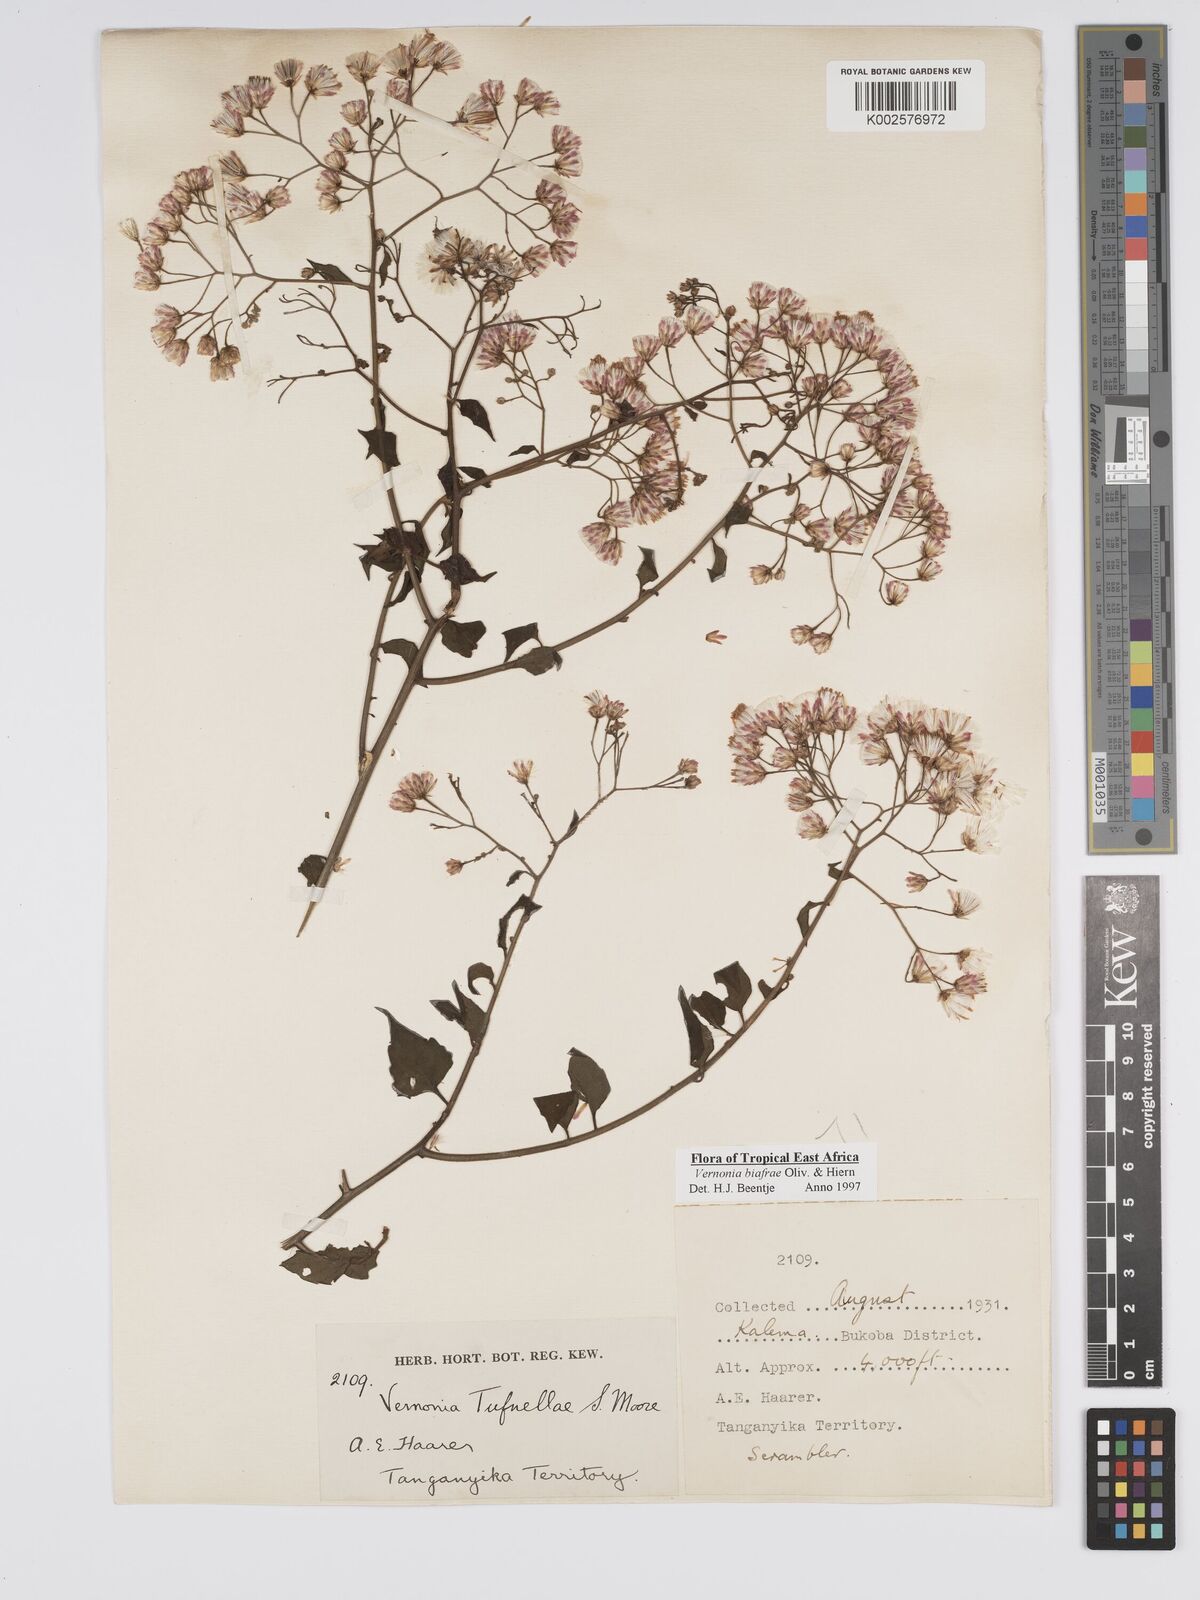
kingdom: Plantae
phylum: Tracheophyta
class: Magnoliopsida
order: Asterales
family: Asteraceae
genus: Distephanus
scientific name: Distephanus biafrae
